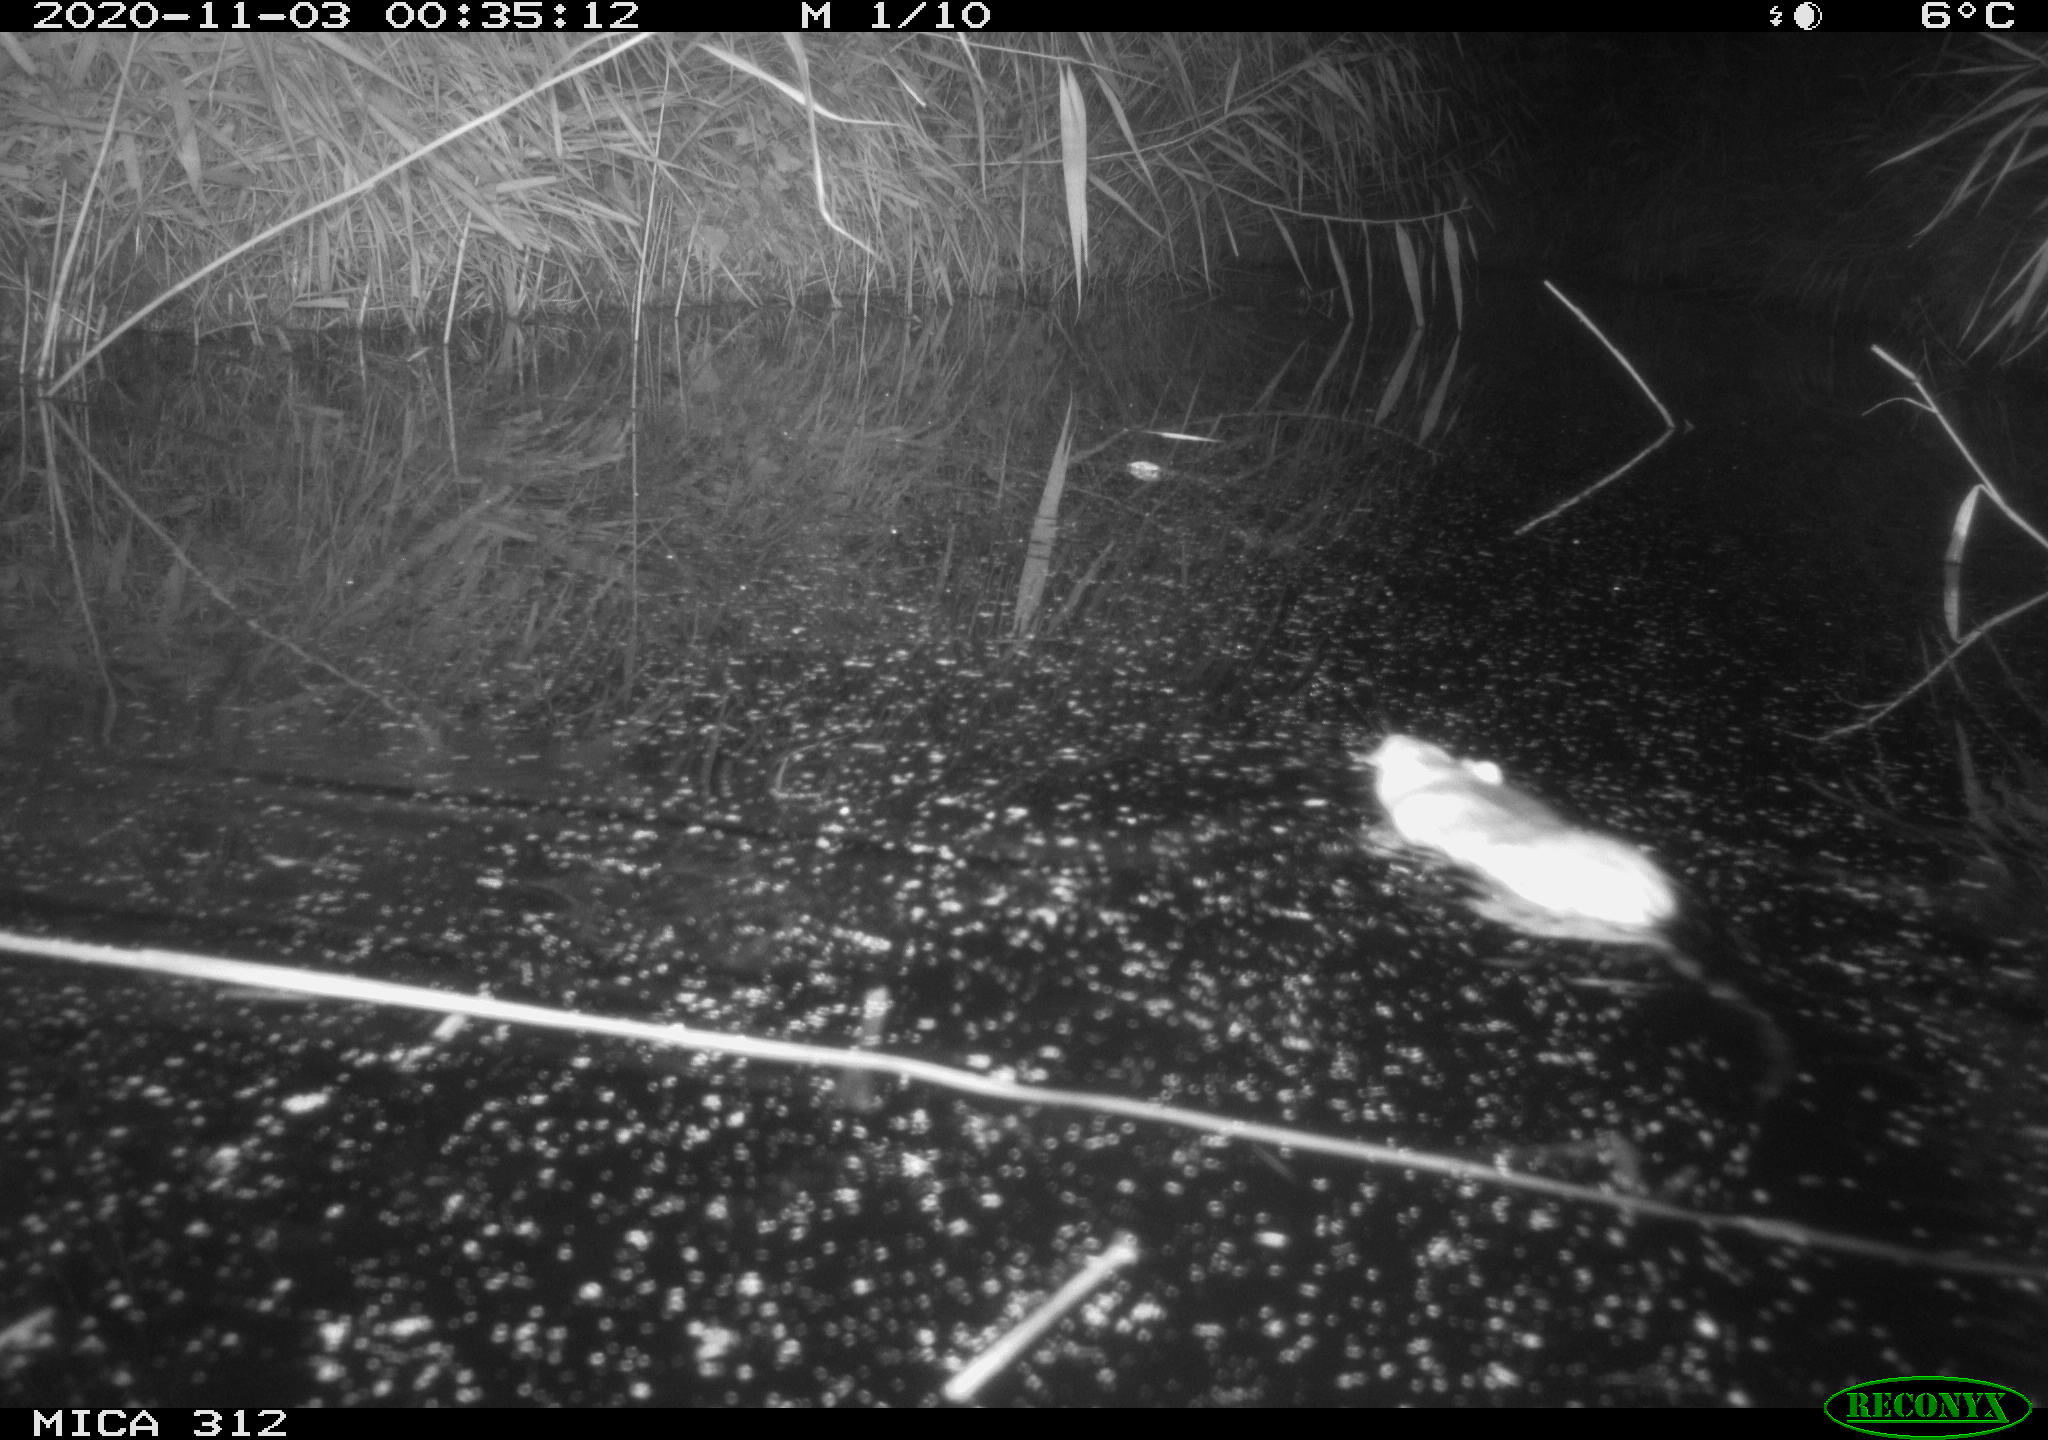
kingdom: Animalia
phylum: Chordata
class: Mammalia
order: Rodentia
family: Muridae
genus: Rattus
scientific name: Rattus norvegicus
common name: Brown rat
